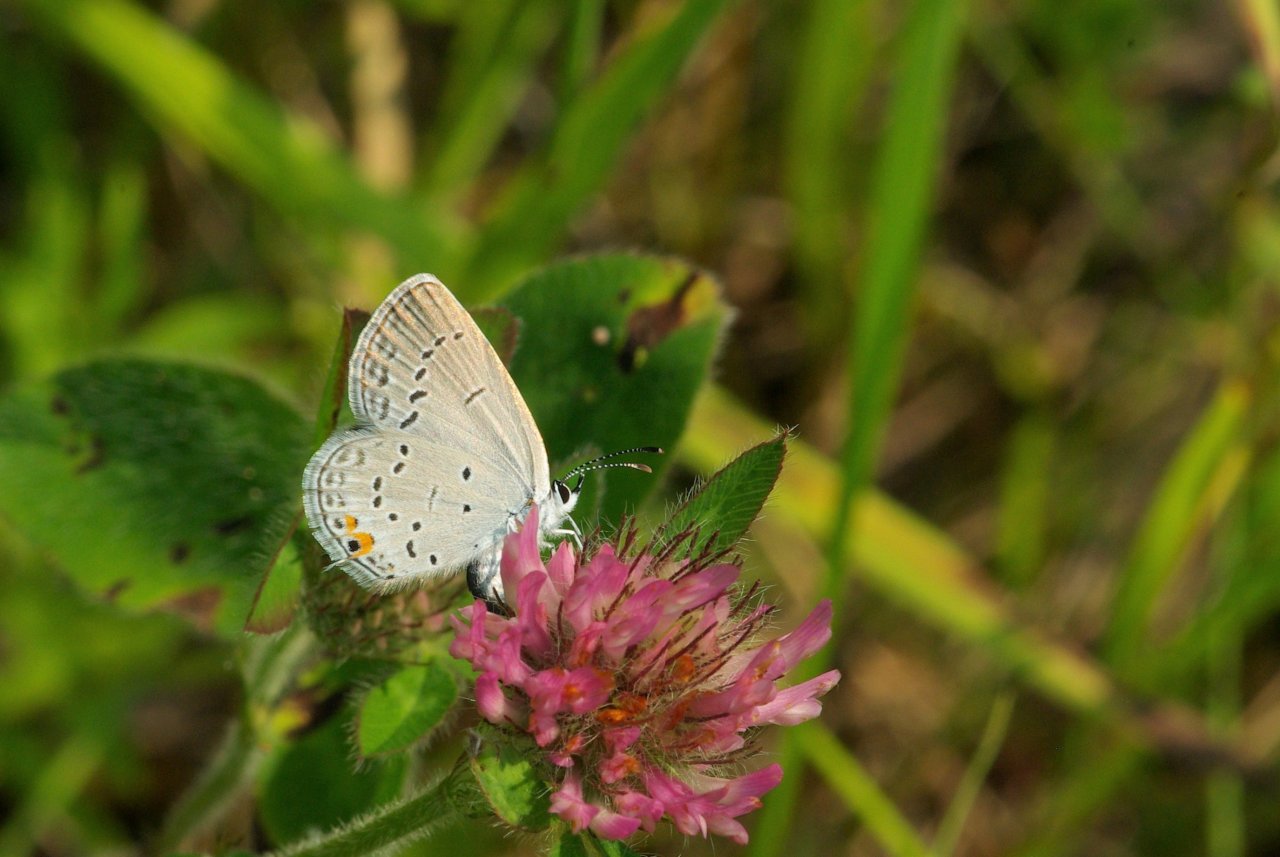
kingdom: Animalia
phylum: Arthropoda
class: Insecta
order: Lepidoptera
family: Lycaenidae
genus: Elkalyce
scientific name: Elkalyce comyntas
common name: Eastern Tailed-Blue
